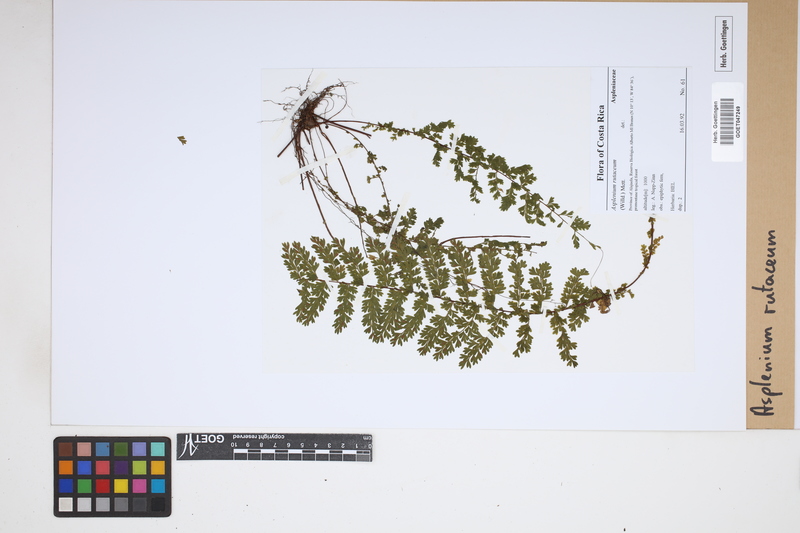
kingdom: Plantae
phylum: Tracheophyta
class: Polypodiopsida
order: Polypodiales
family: Aspleniaceae
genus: Asplenium
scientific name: Asplenium rutaceum
